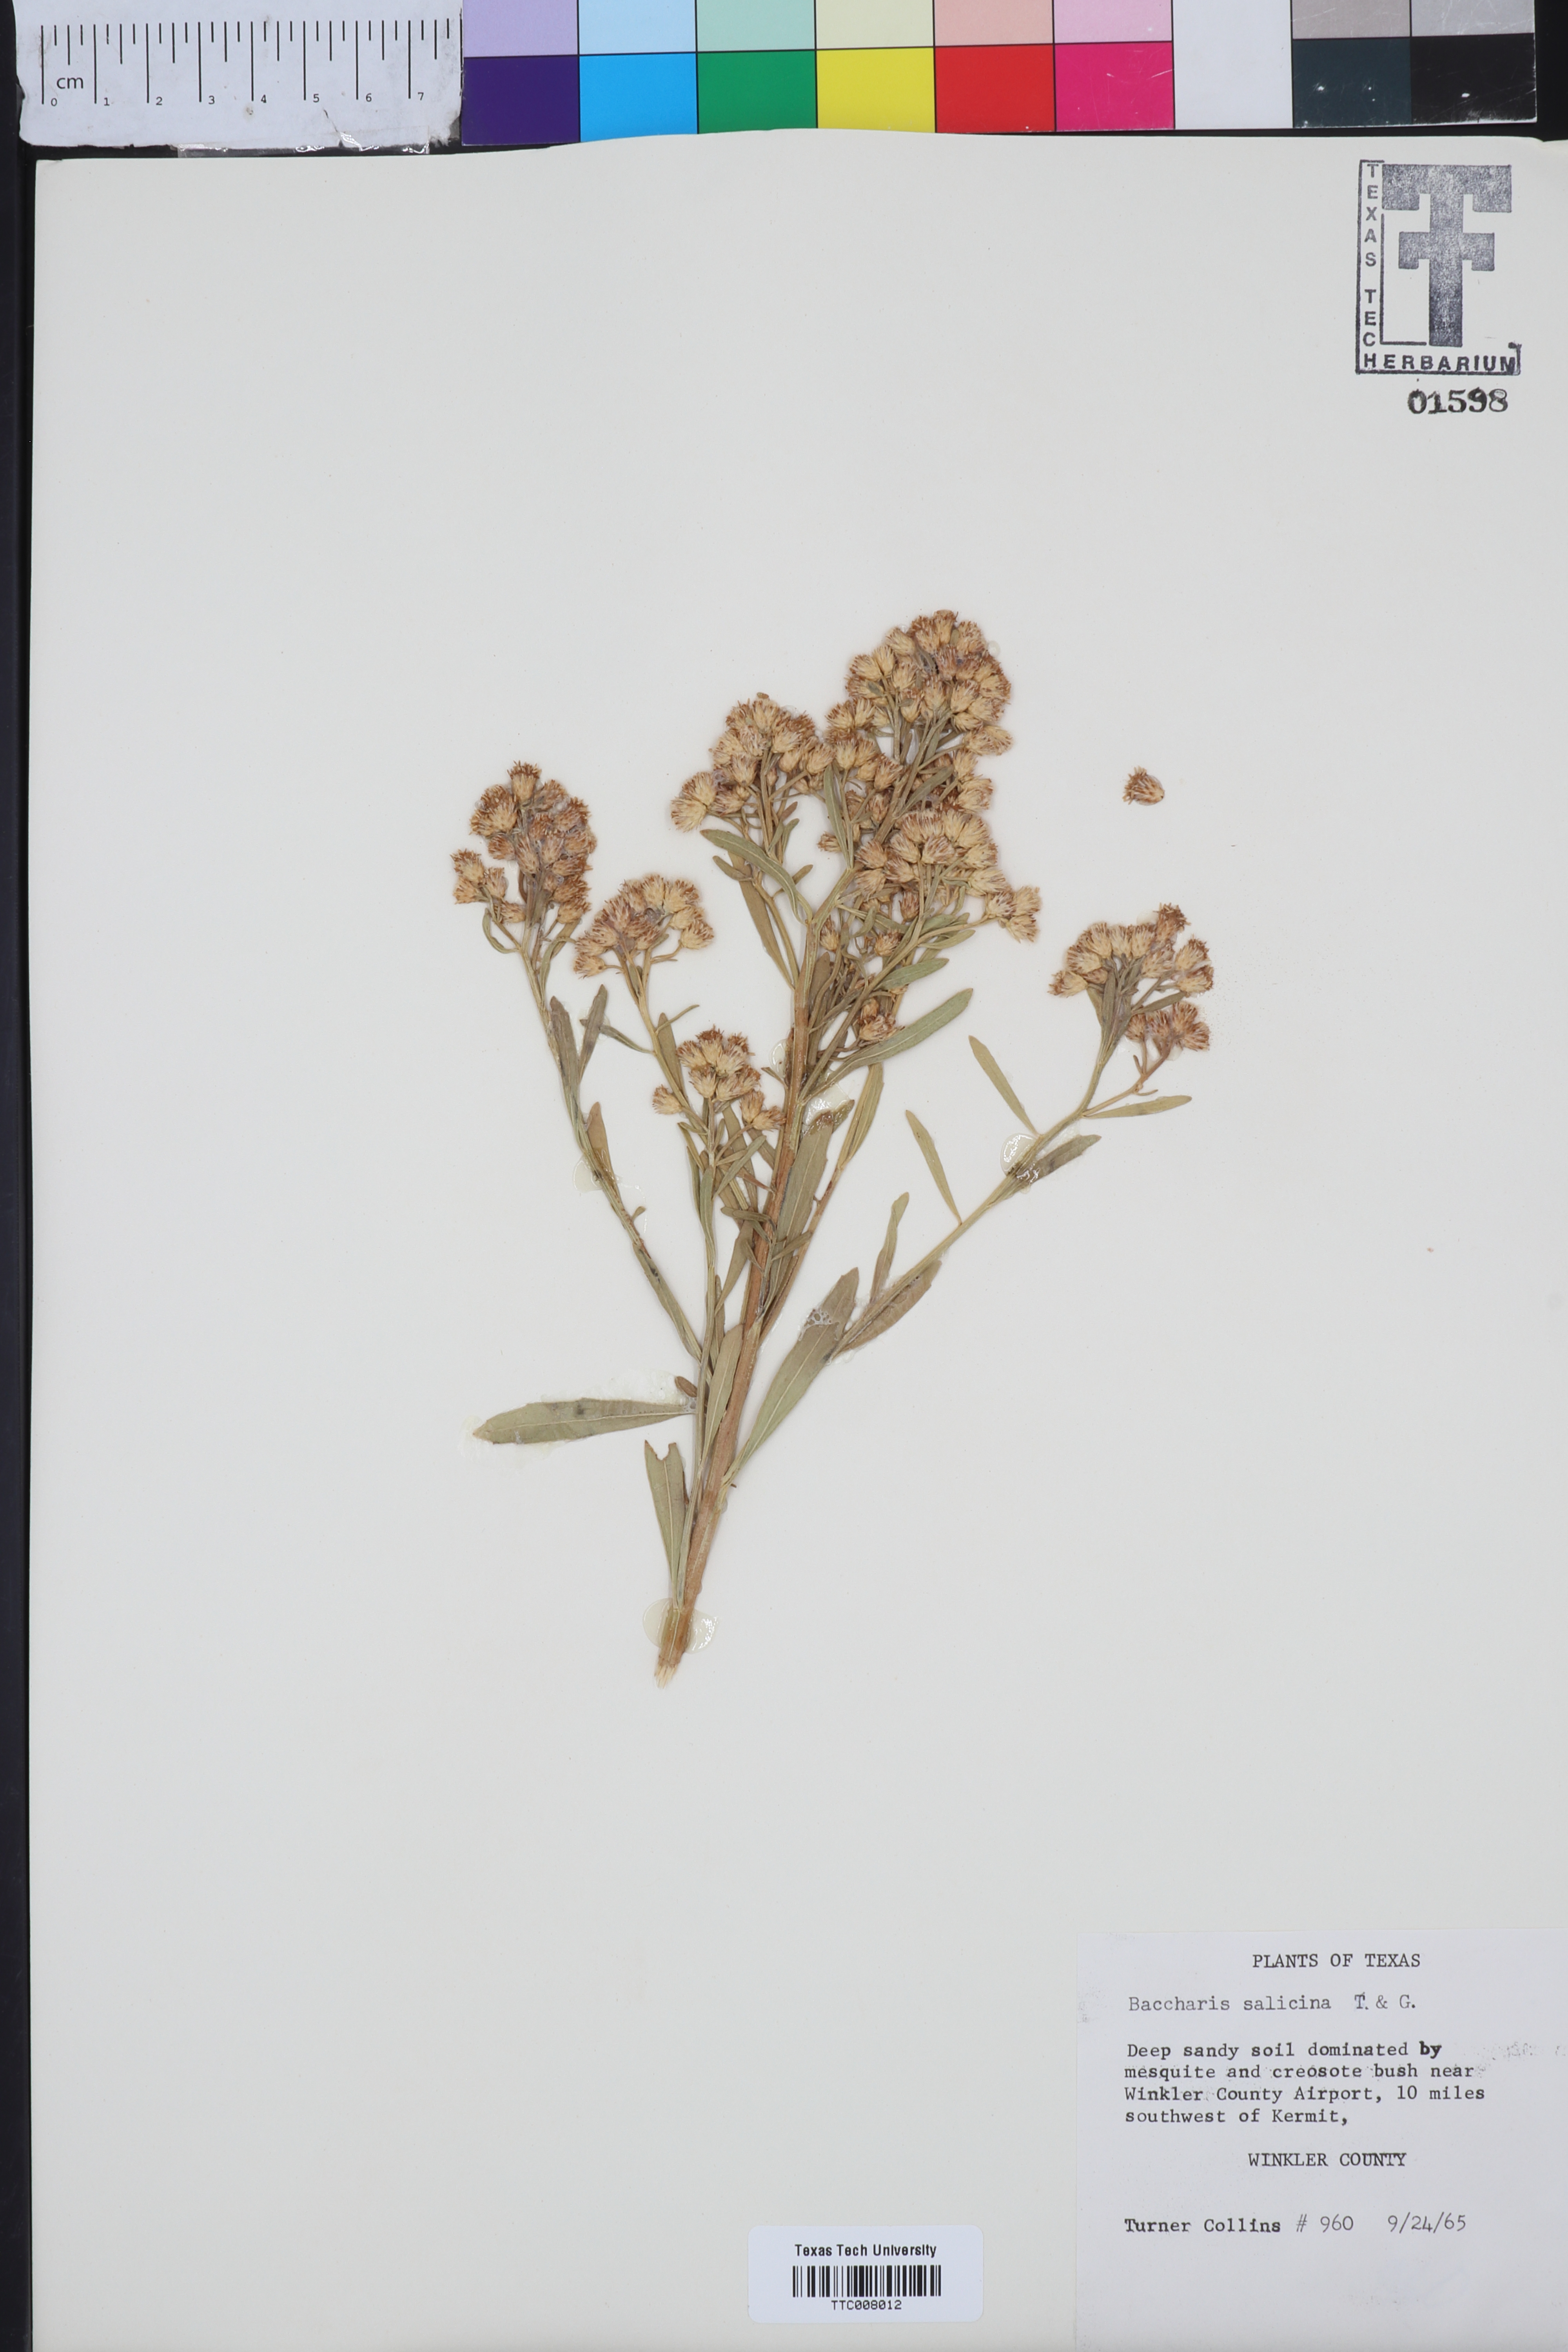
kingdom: Plantae
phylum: Tracheophyta
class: Magnoliopsida
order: Asterales
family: Asteraceae
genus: Baccharis
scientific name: Baccharis salicina
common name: Willow baccharis
